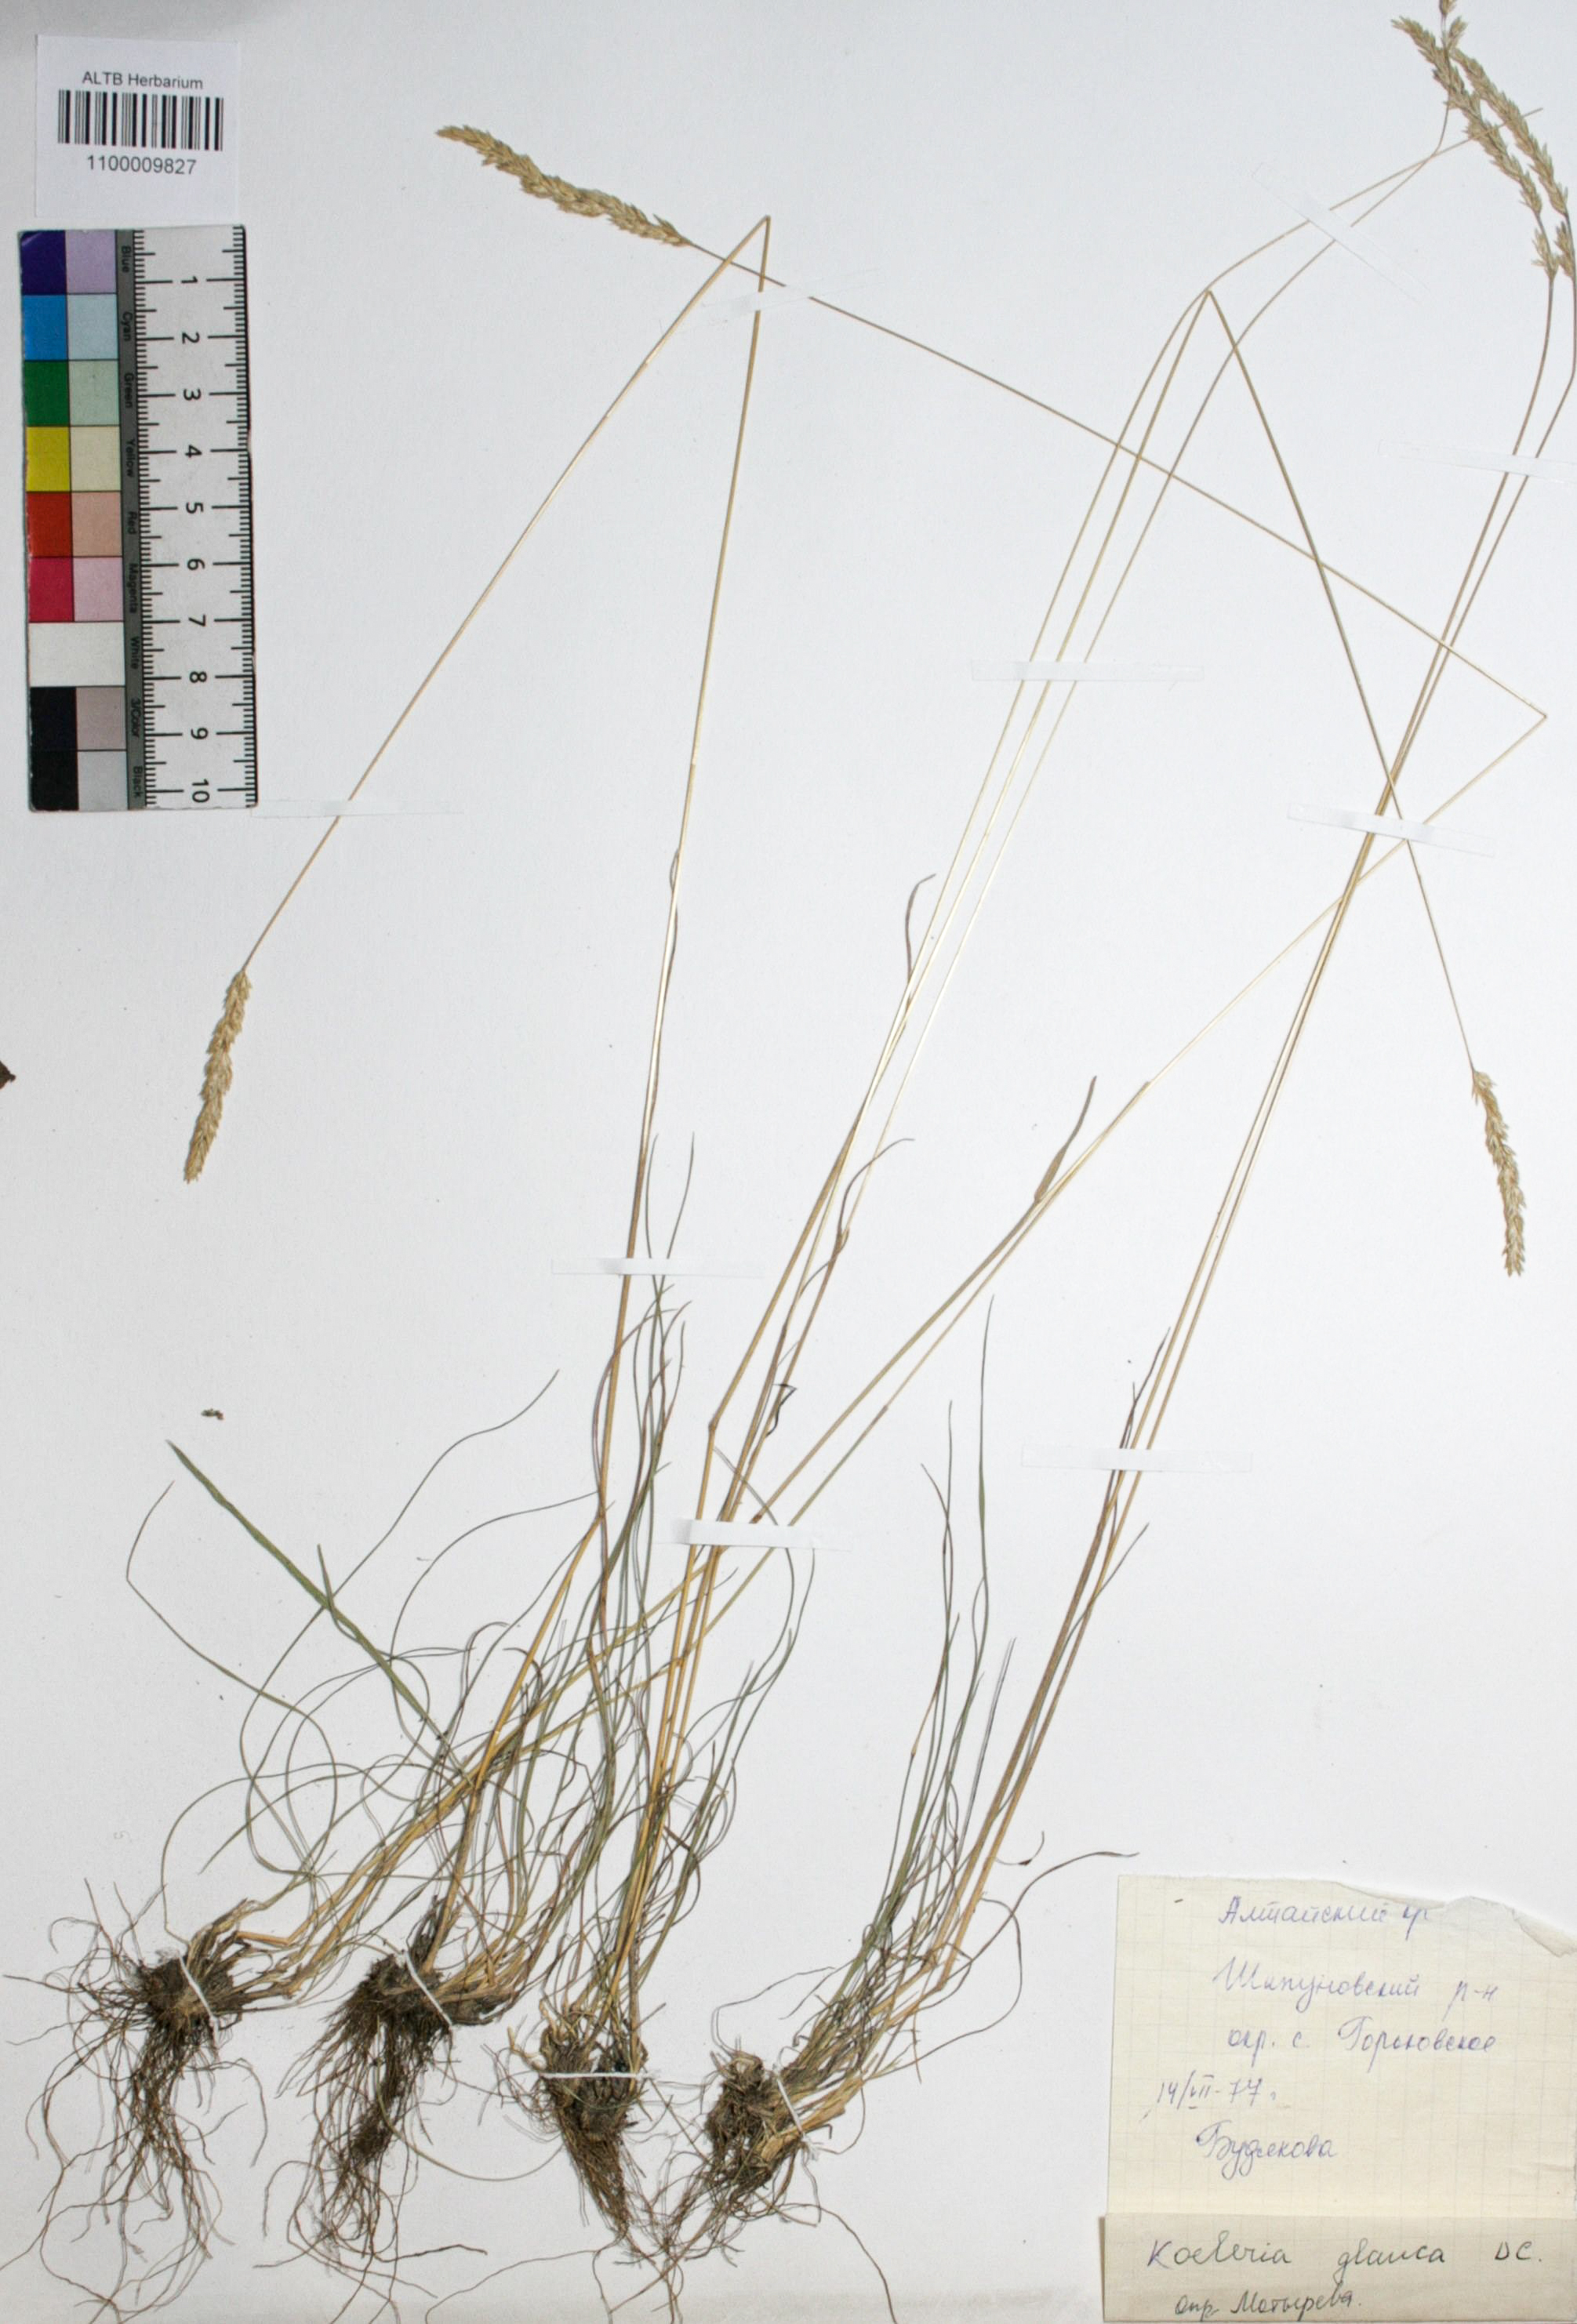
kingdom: Plantae
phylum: Tracheophyta
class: Liliopsida
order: Poales
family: Poaceae
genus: Koeleria
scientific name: Koeleria glauca
